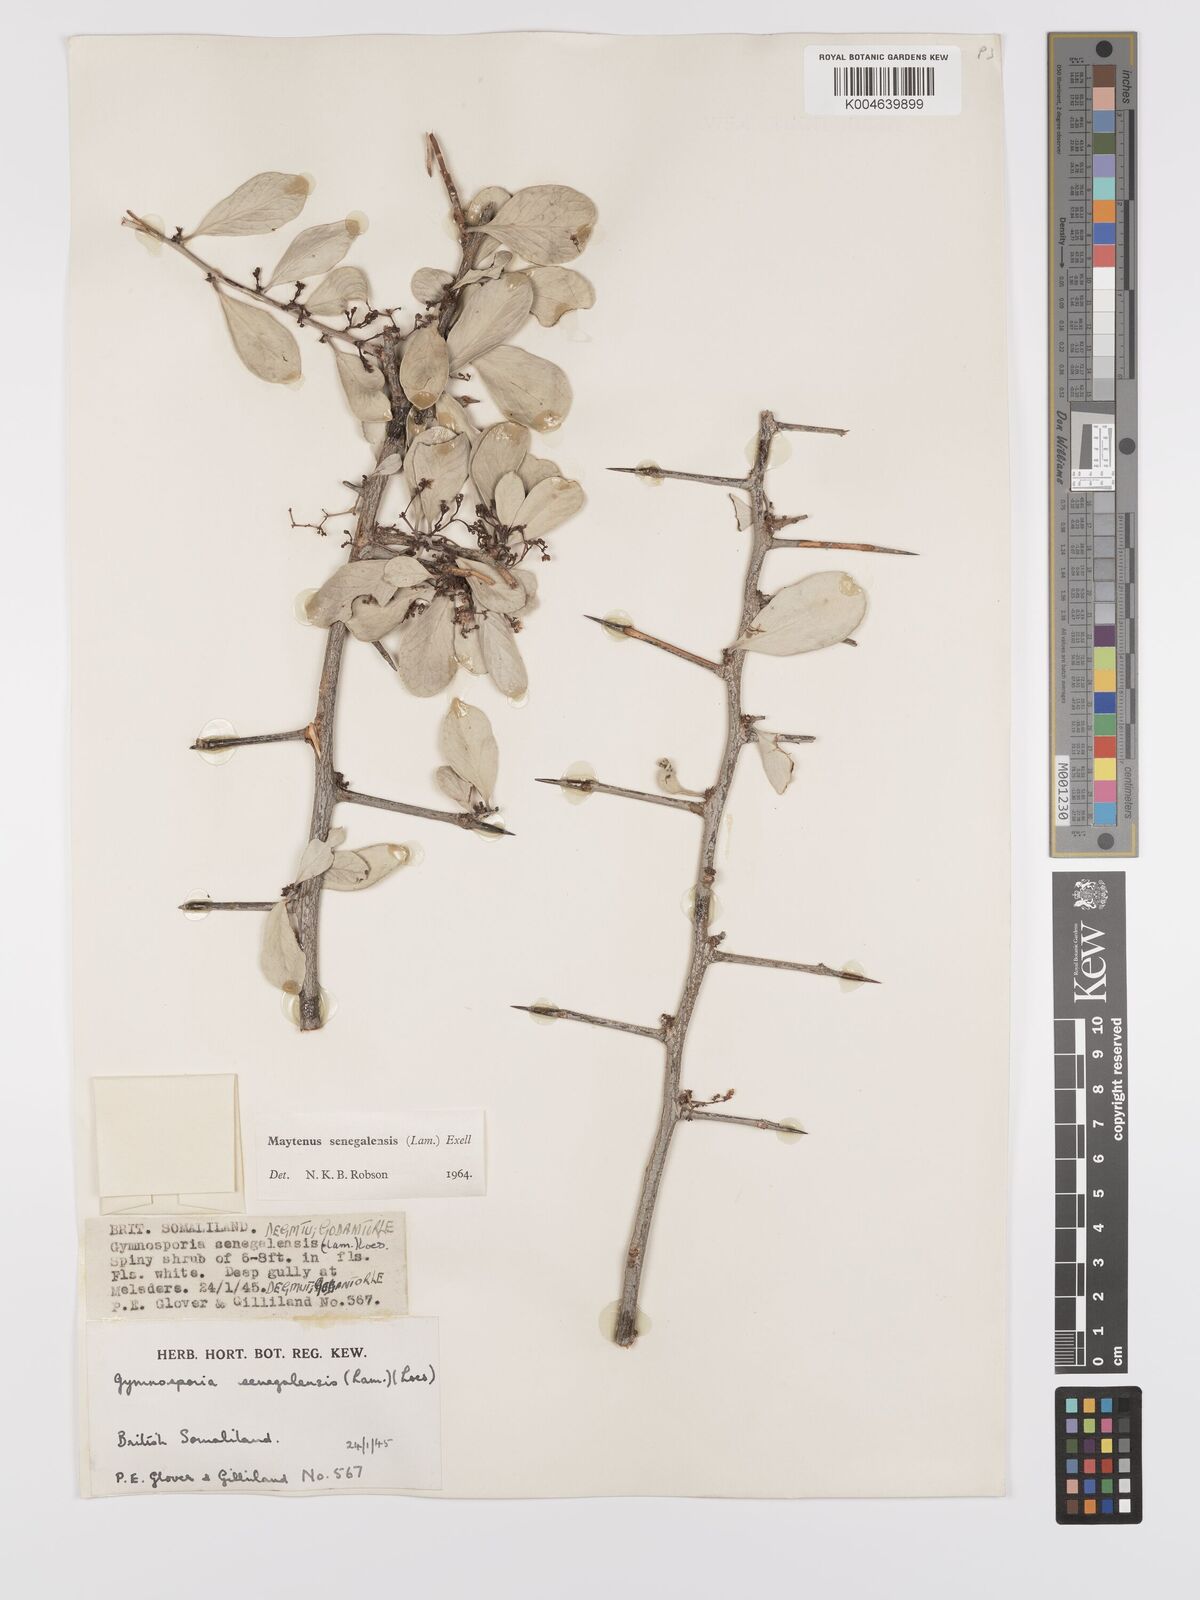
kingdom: Plantae
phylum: Tracheophyta
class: Magnoliopsida
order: Celastrales
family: Celastraceae
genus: Gymnosporia
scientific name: Gymnosporia senegalensis
